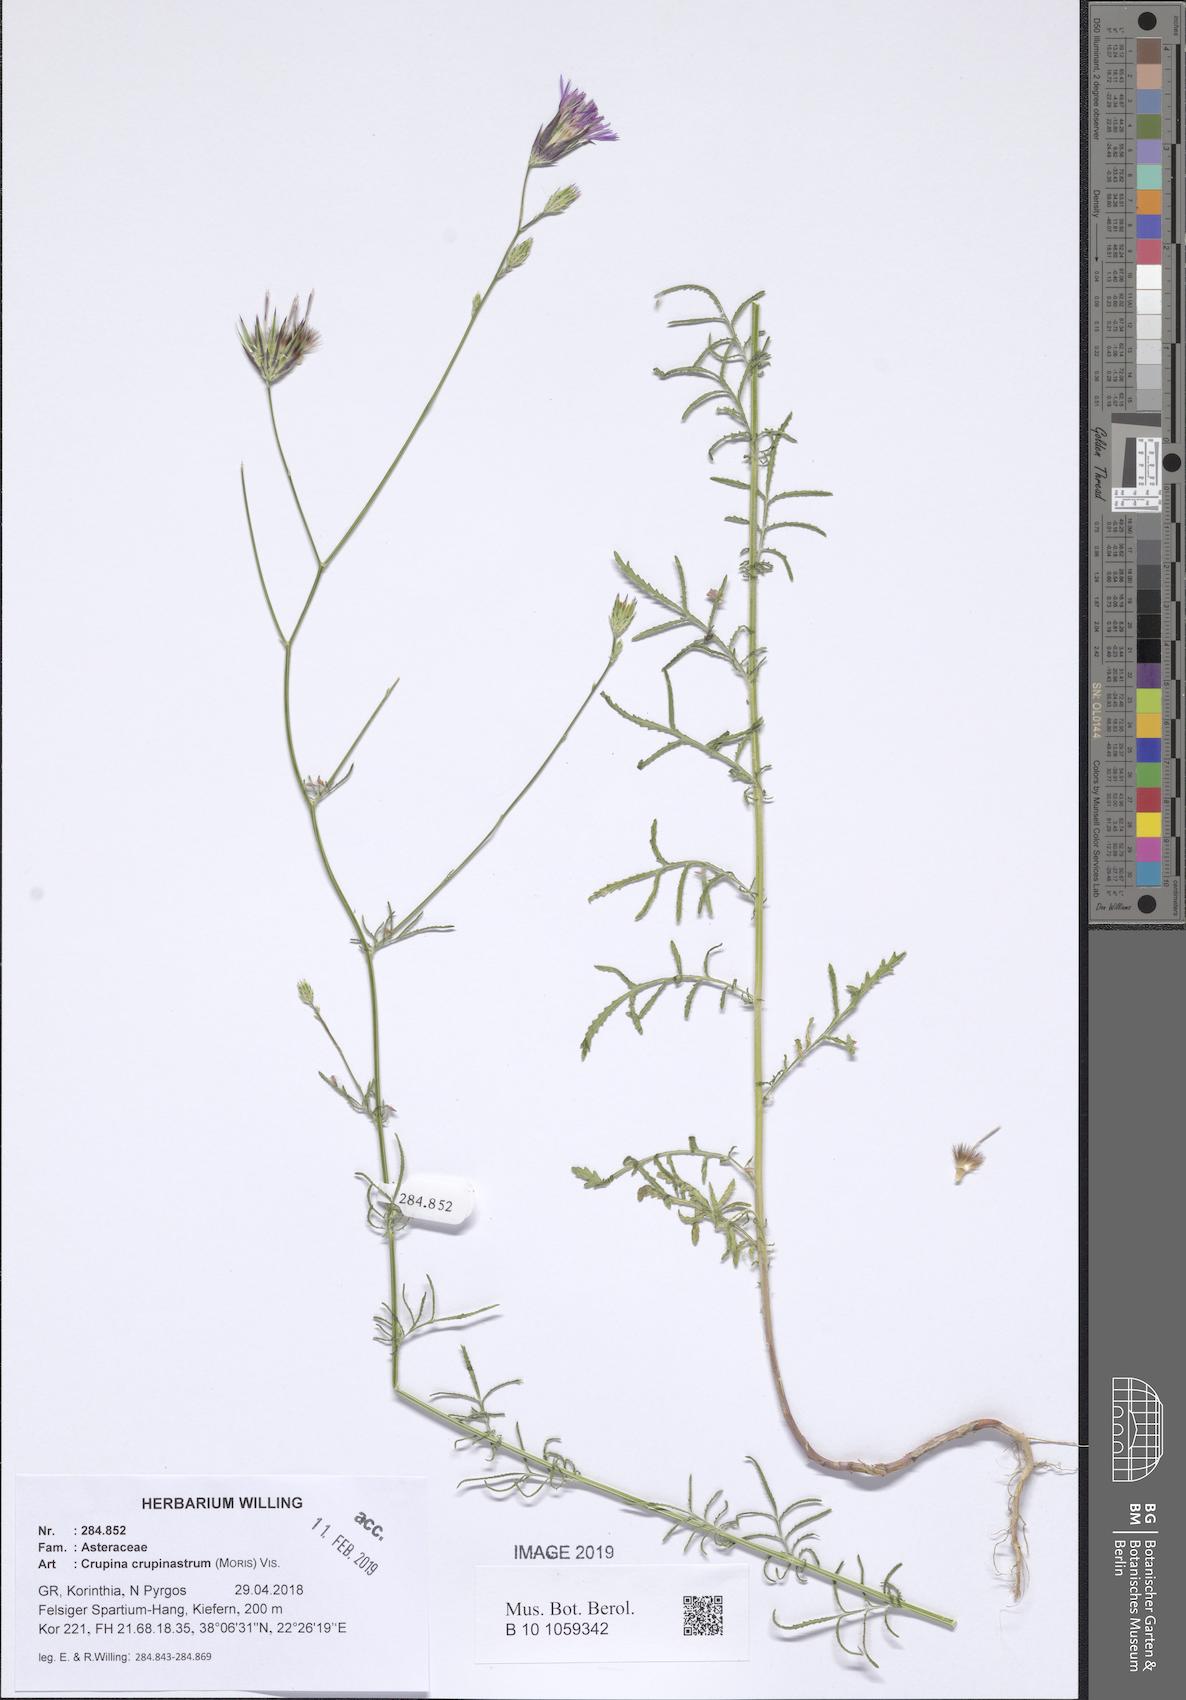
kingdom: Plantae
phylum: Tracheophyta
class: Magnoliopsida
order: Asterales
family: Asteraceae
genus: Crupina
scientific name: Crupina crupinastrum
